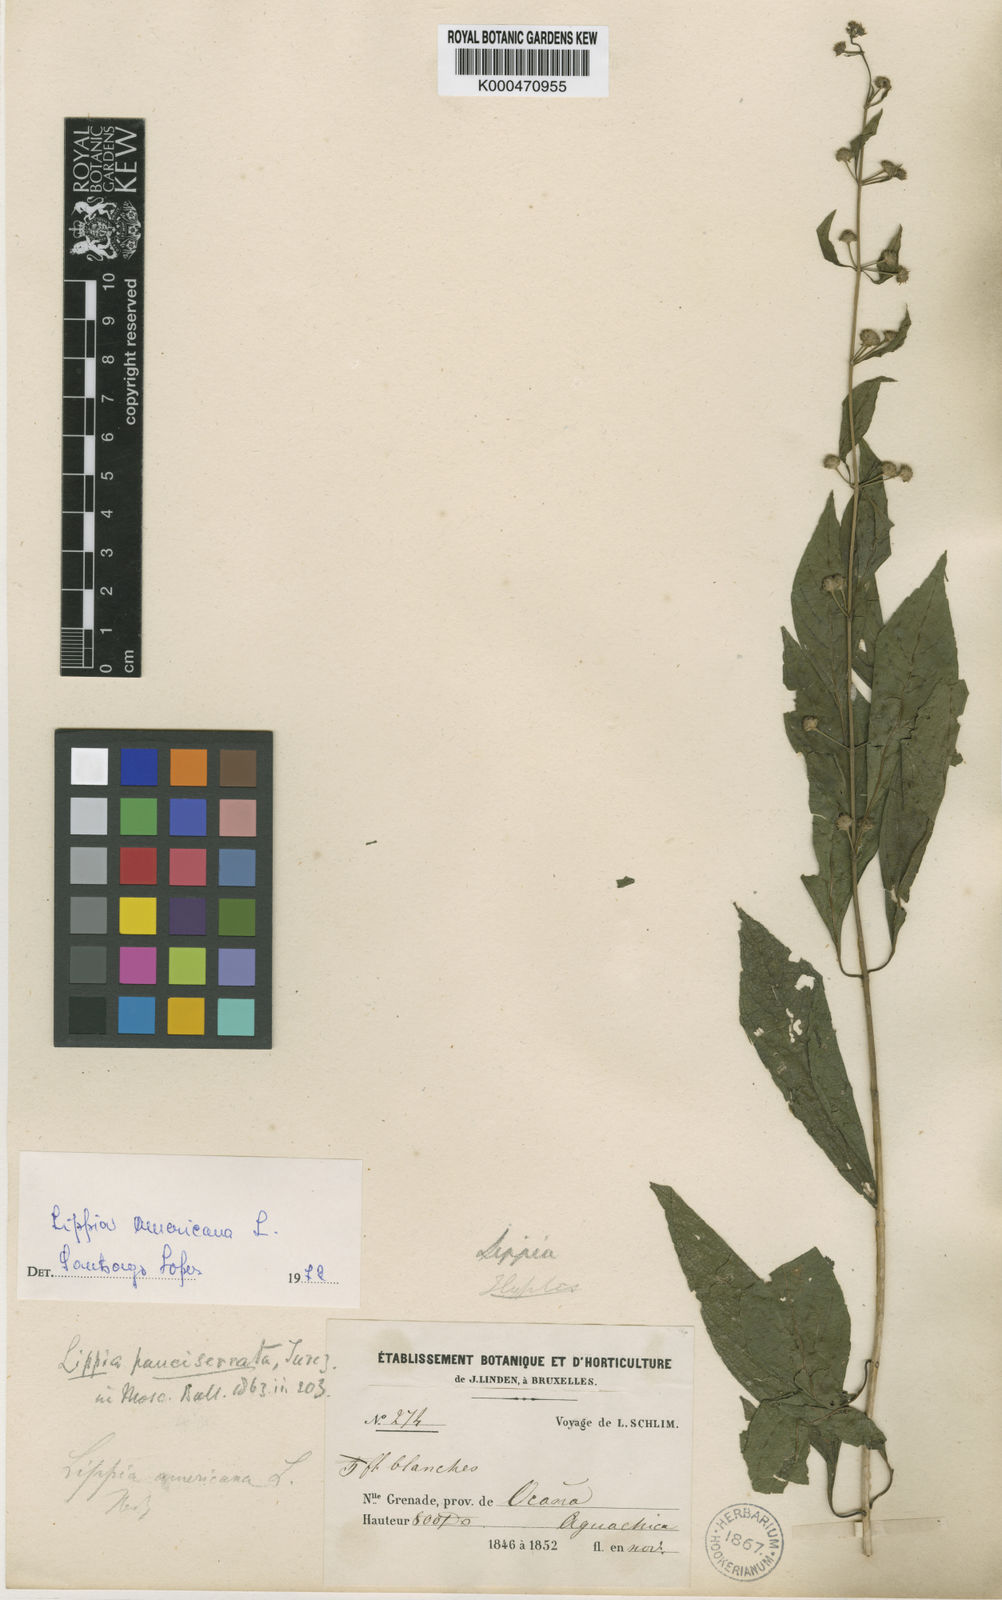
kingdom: Plantae
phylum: Tracheophyta
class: Magnoliopsida
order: Lamiales
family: Verbenaceae
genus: Lippia
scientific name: Lippia americana
